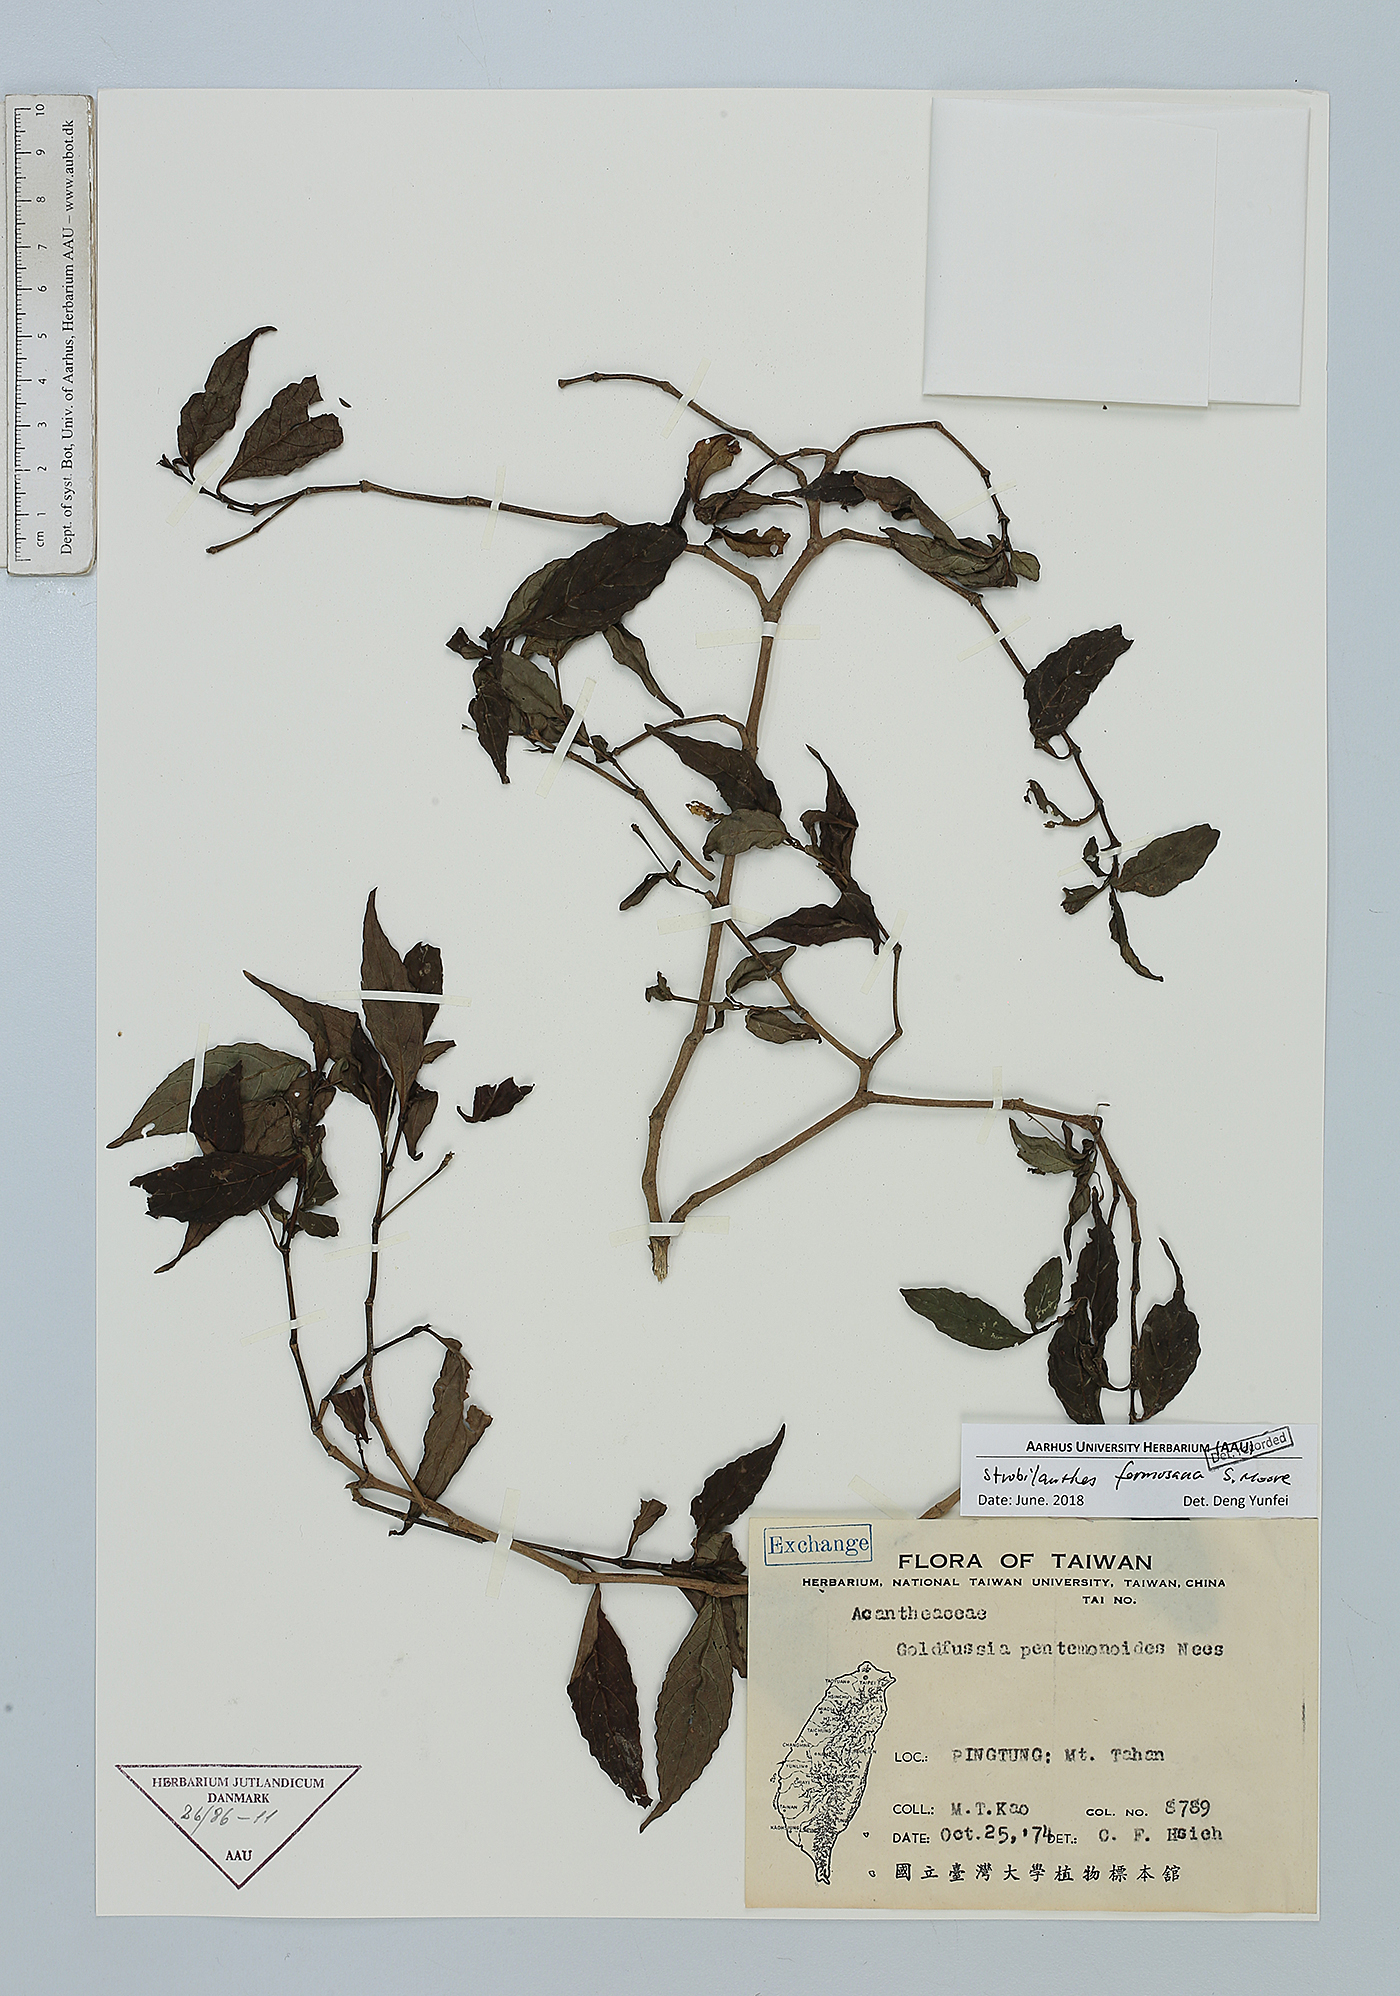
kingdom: Plantae
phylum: Tracheophyta
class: Magnoliopsida
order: Lamiales
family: Acanthaceae
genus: Strobilanthes
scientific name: Strobilanthes formosana
